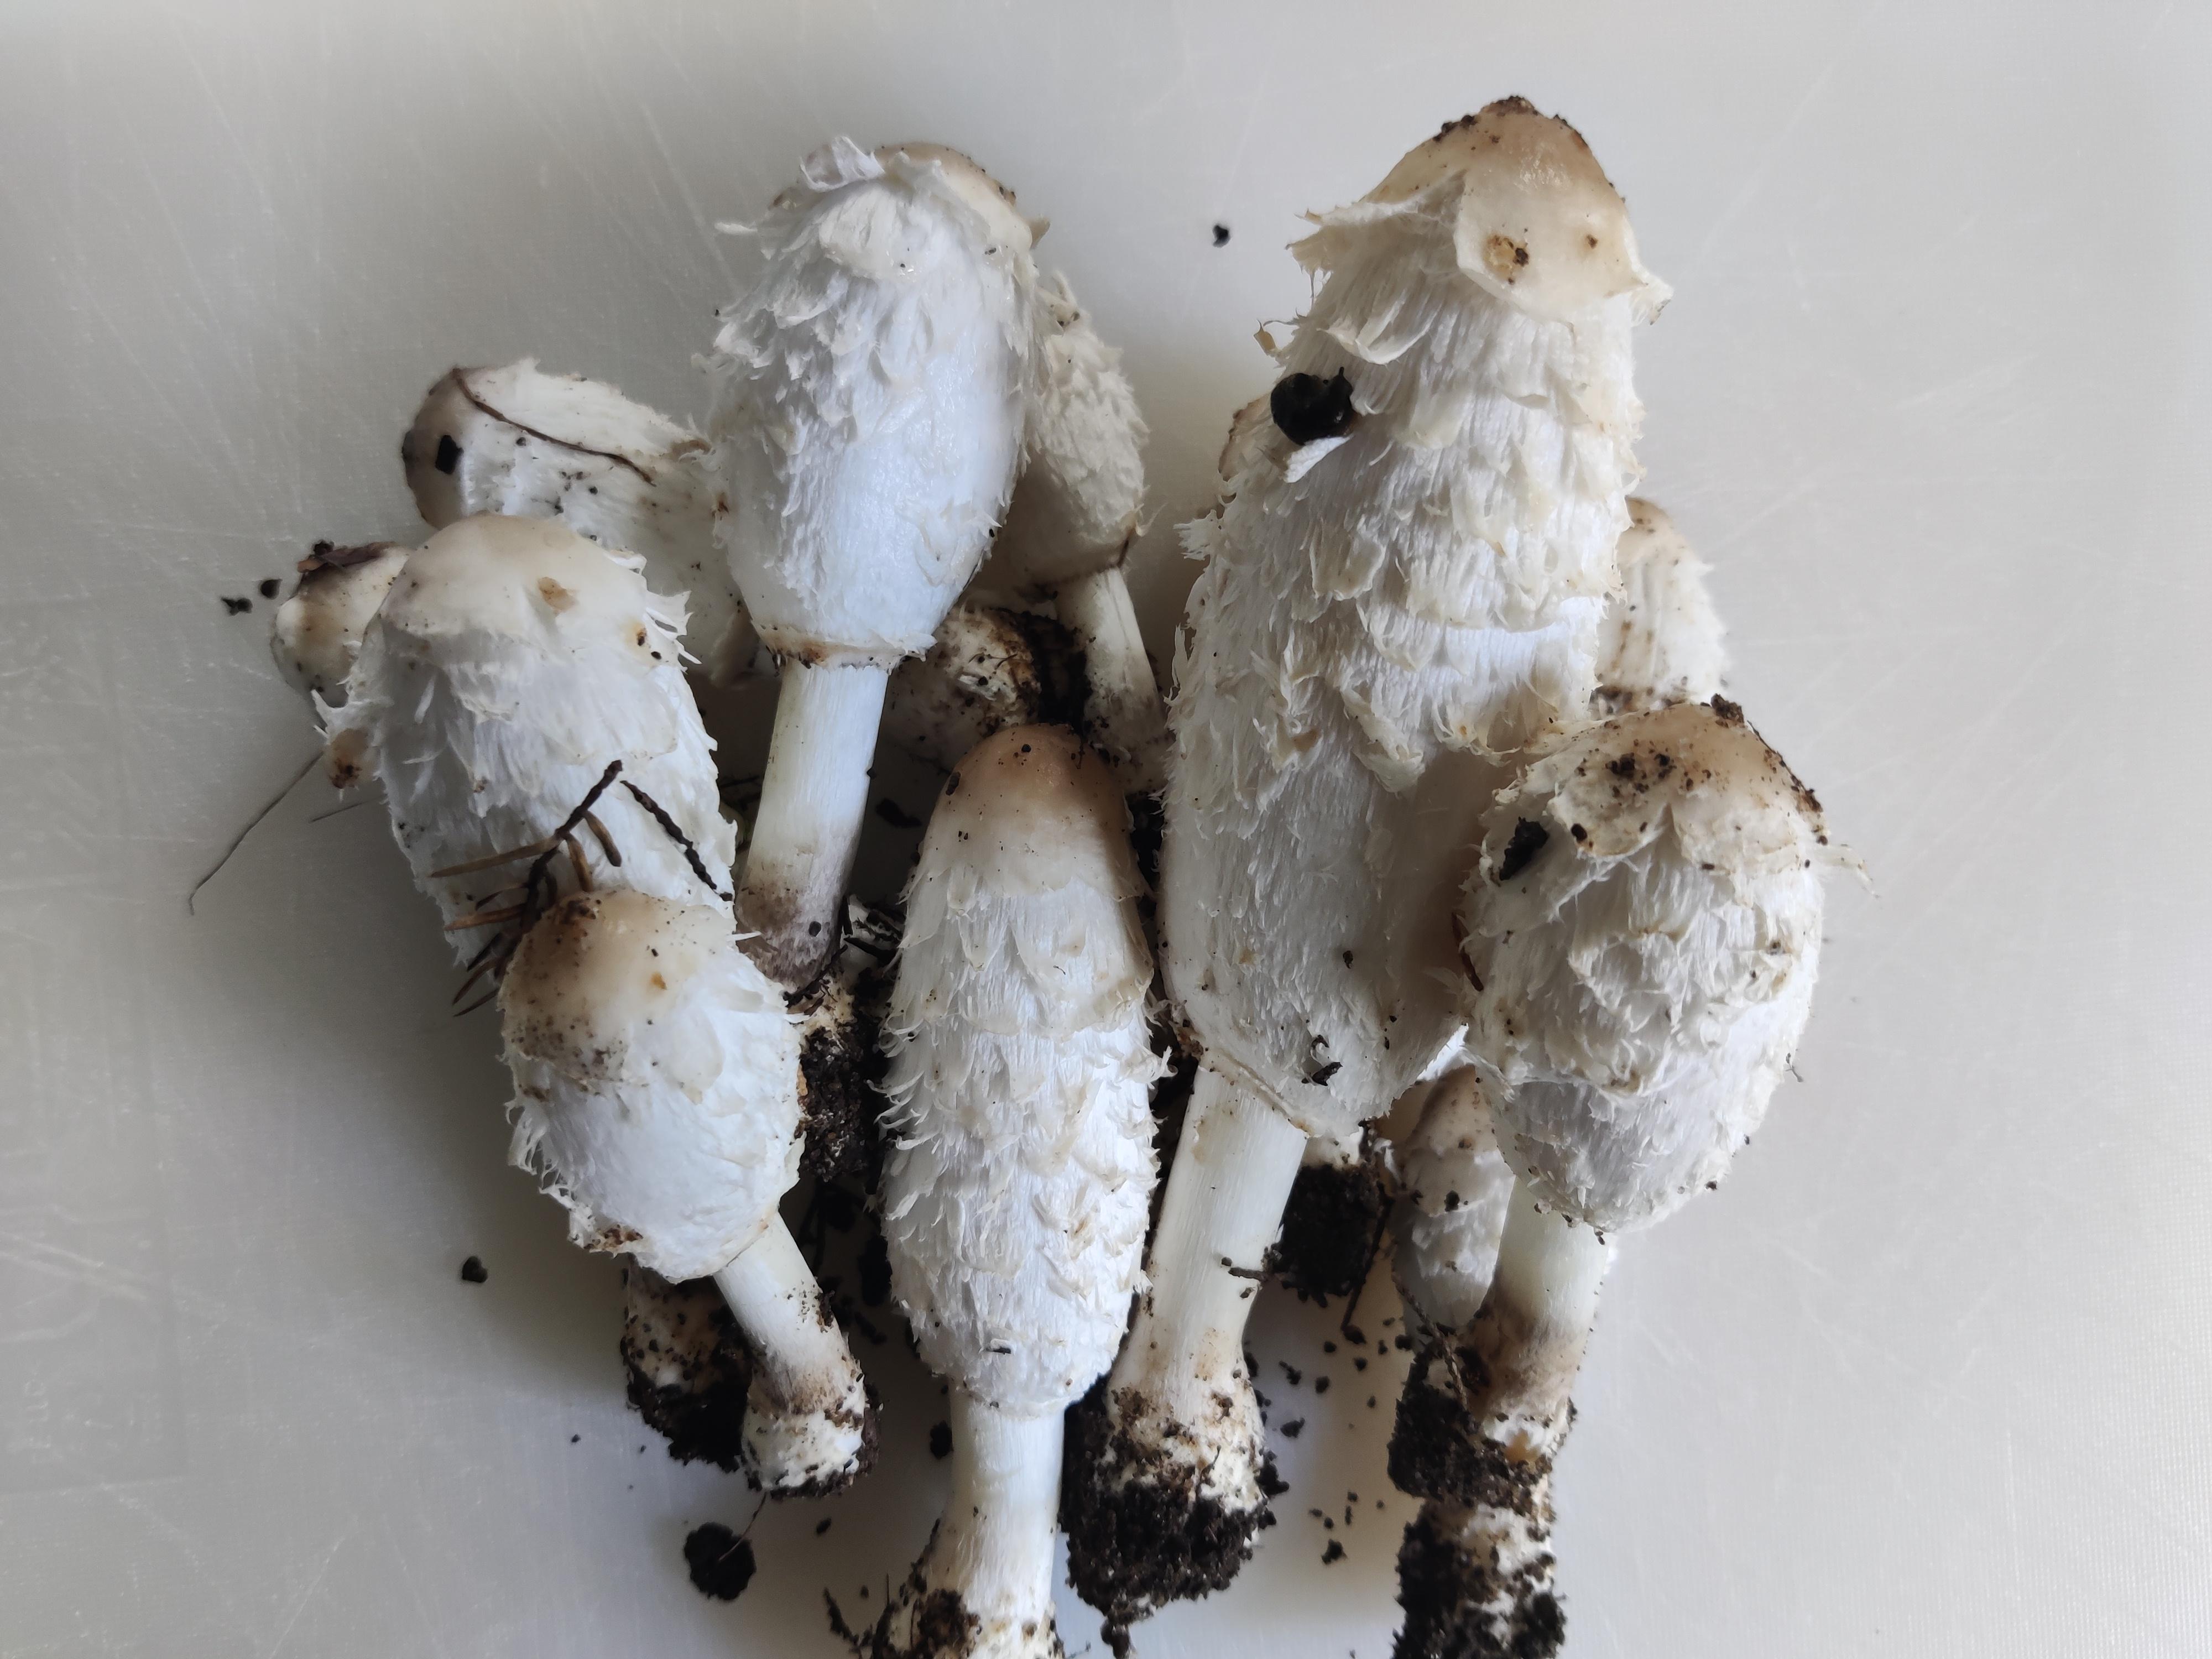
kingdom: Fungi
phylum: Basidiomycota
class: Agaricomycetes
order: Agaricales
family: Agaricaceae
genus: Coprinus
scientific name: Coprinus comatus
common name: stor parykhat
